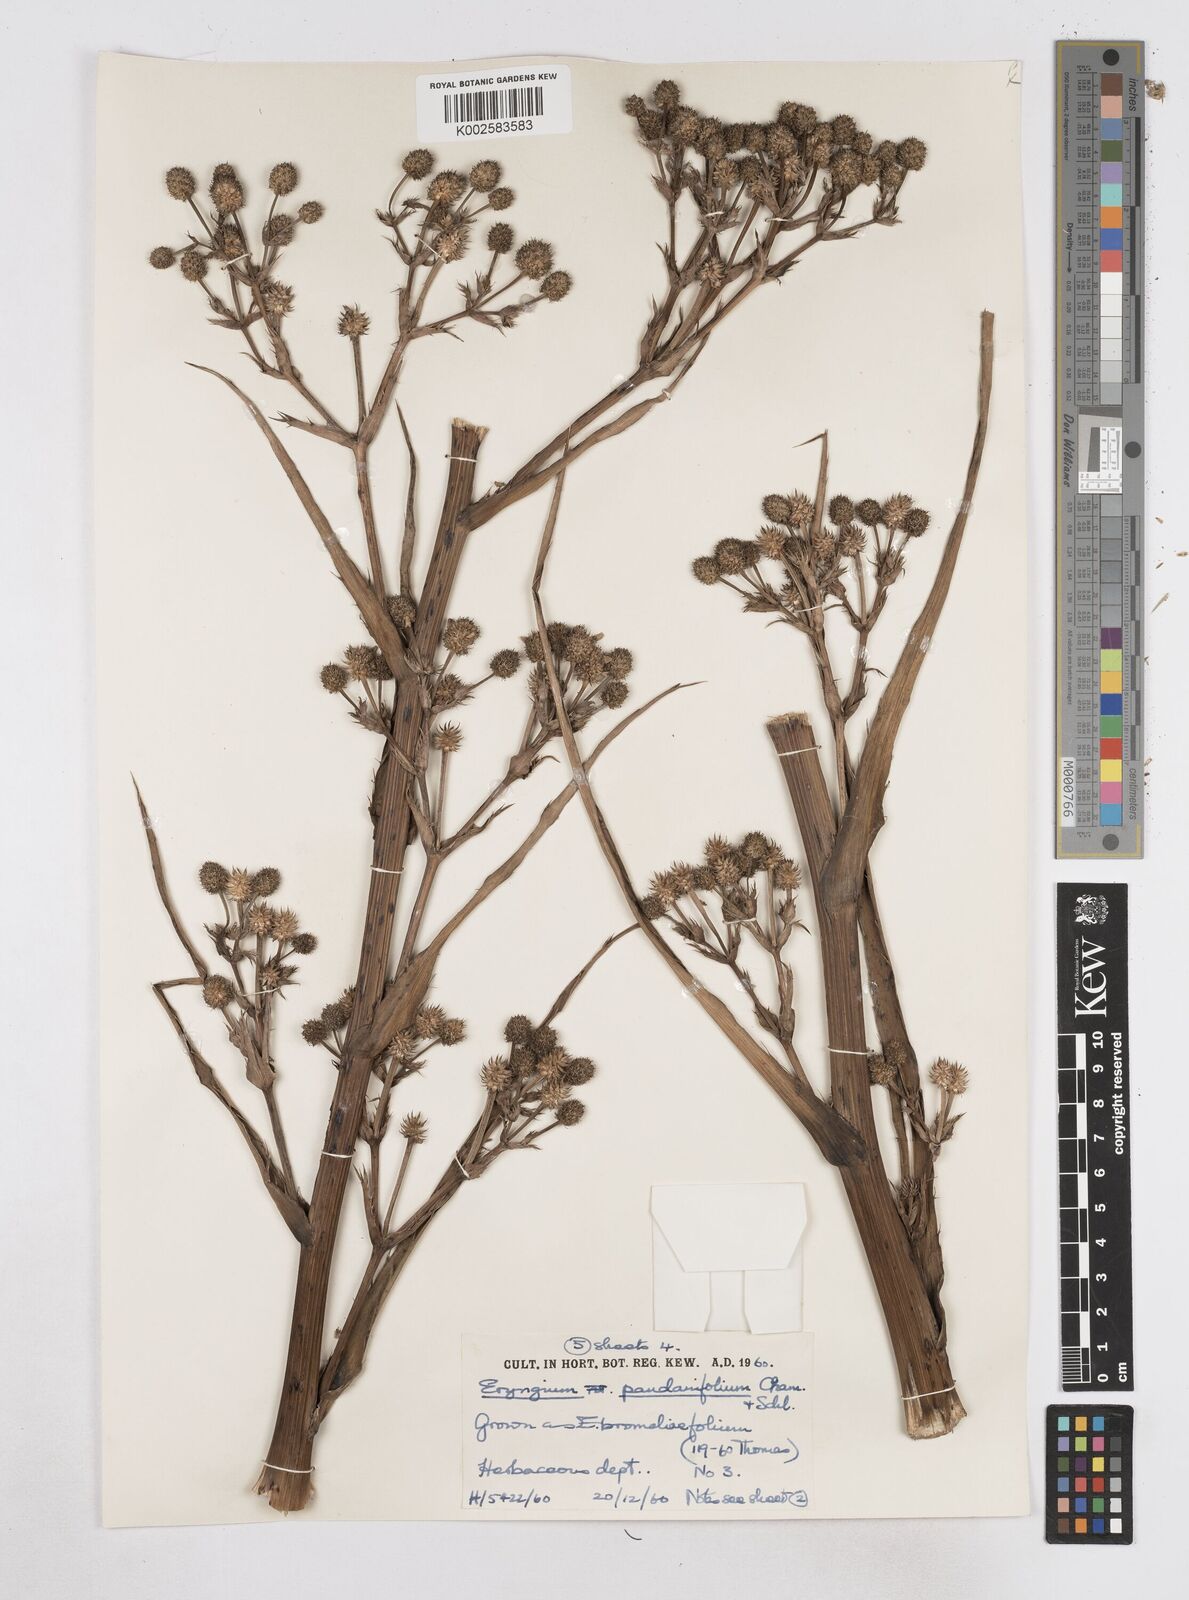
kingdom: Plantae
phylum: Tracheophyta
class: Magnoliopsida
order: Apiales
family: Apiaceae
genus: Eryngium
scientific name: Eryngium pandanifolium
